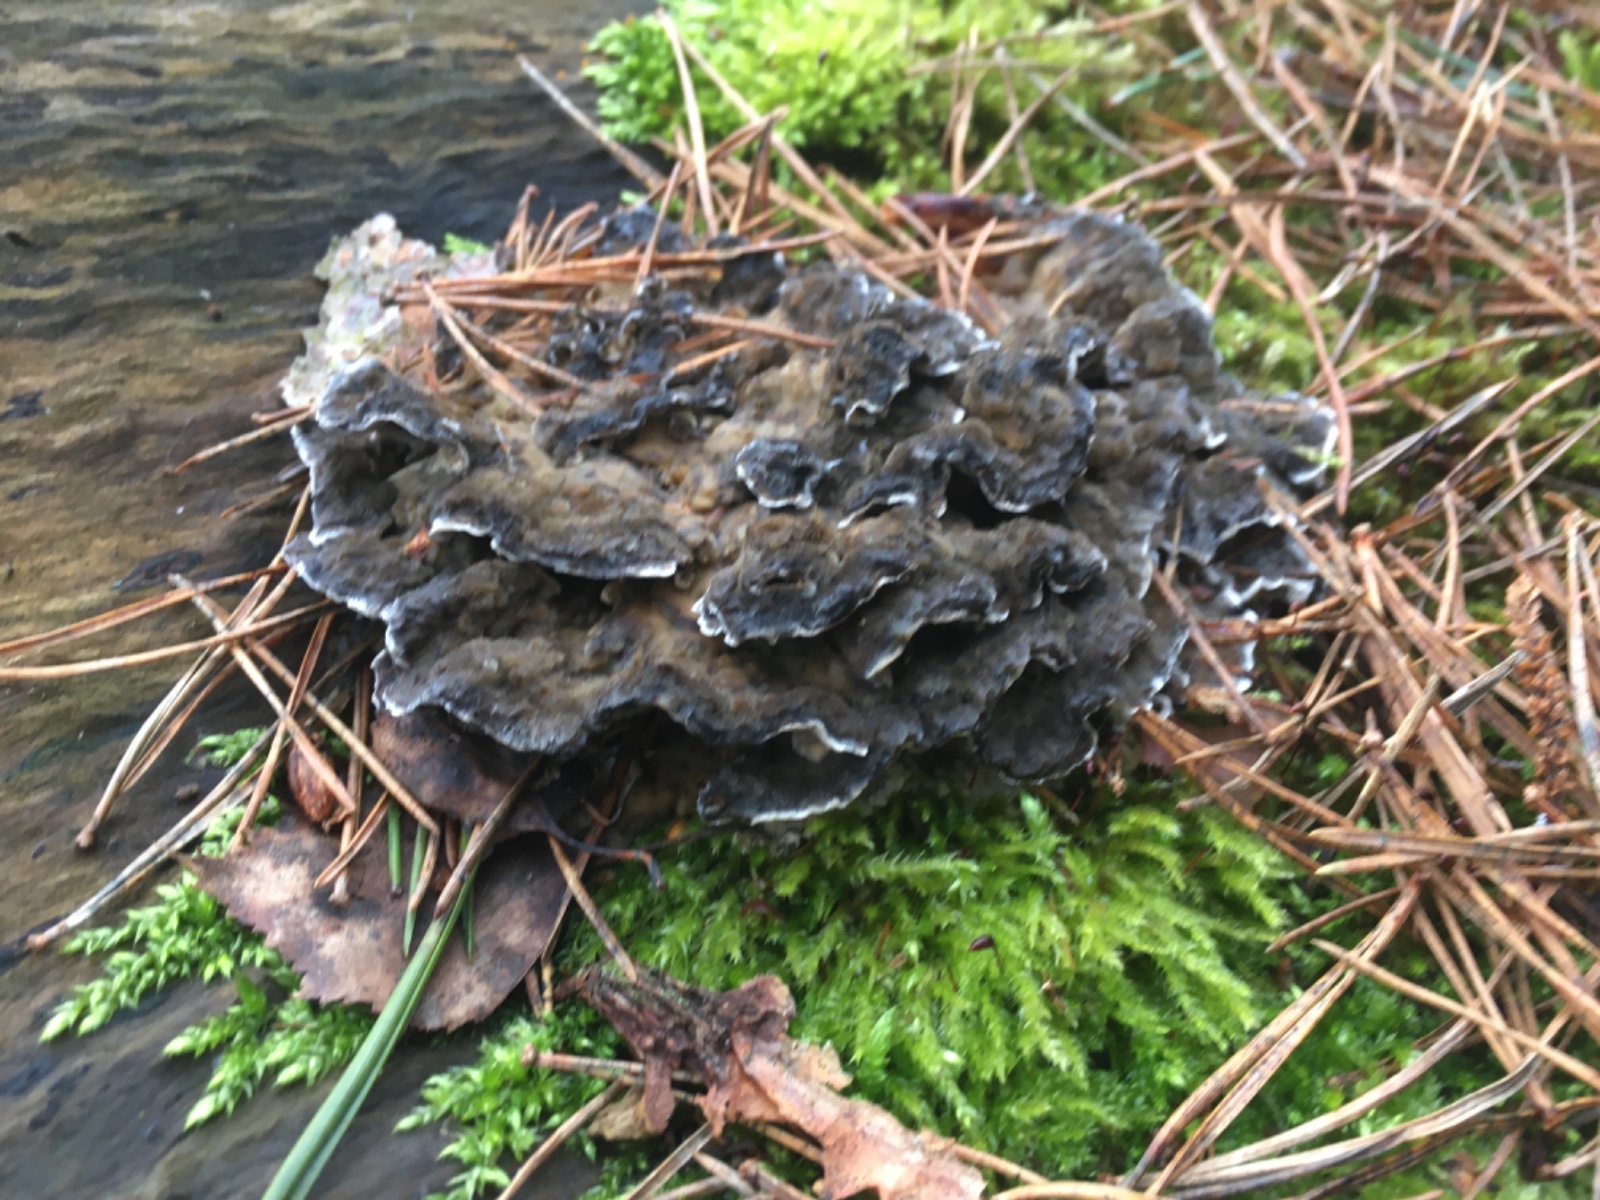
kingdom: Fungi
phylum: Basidiomycota
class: Agaricomycetes
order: Polyporales
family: Phanerochaetaceae
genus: Bjerkandera
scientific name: Bjerkandera adusta
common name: sveden sodporesvamp
